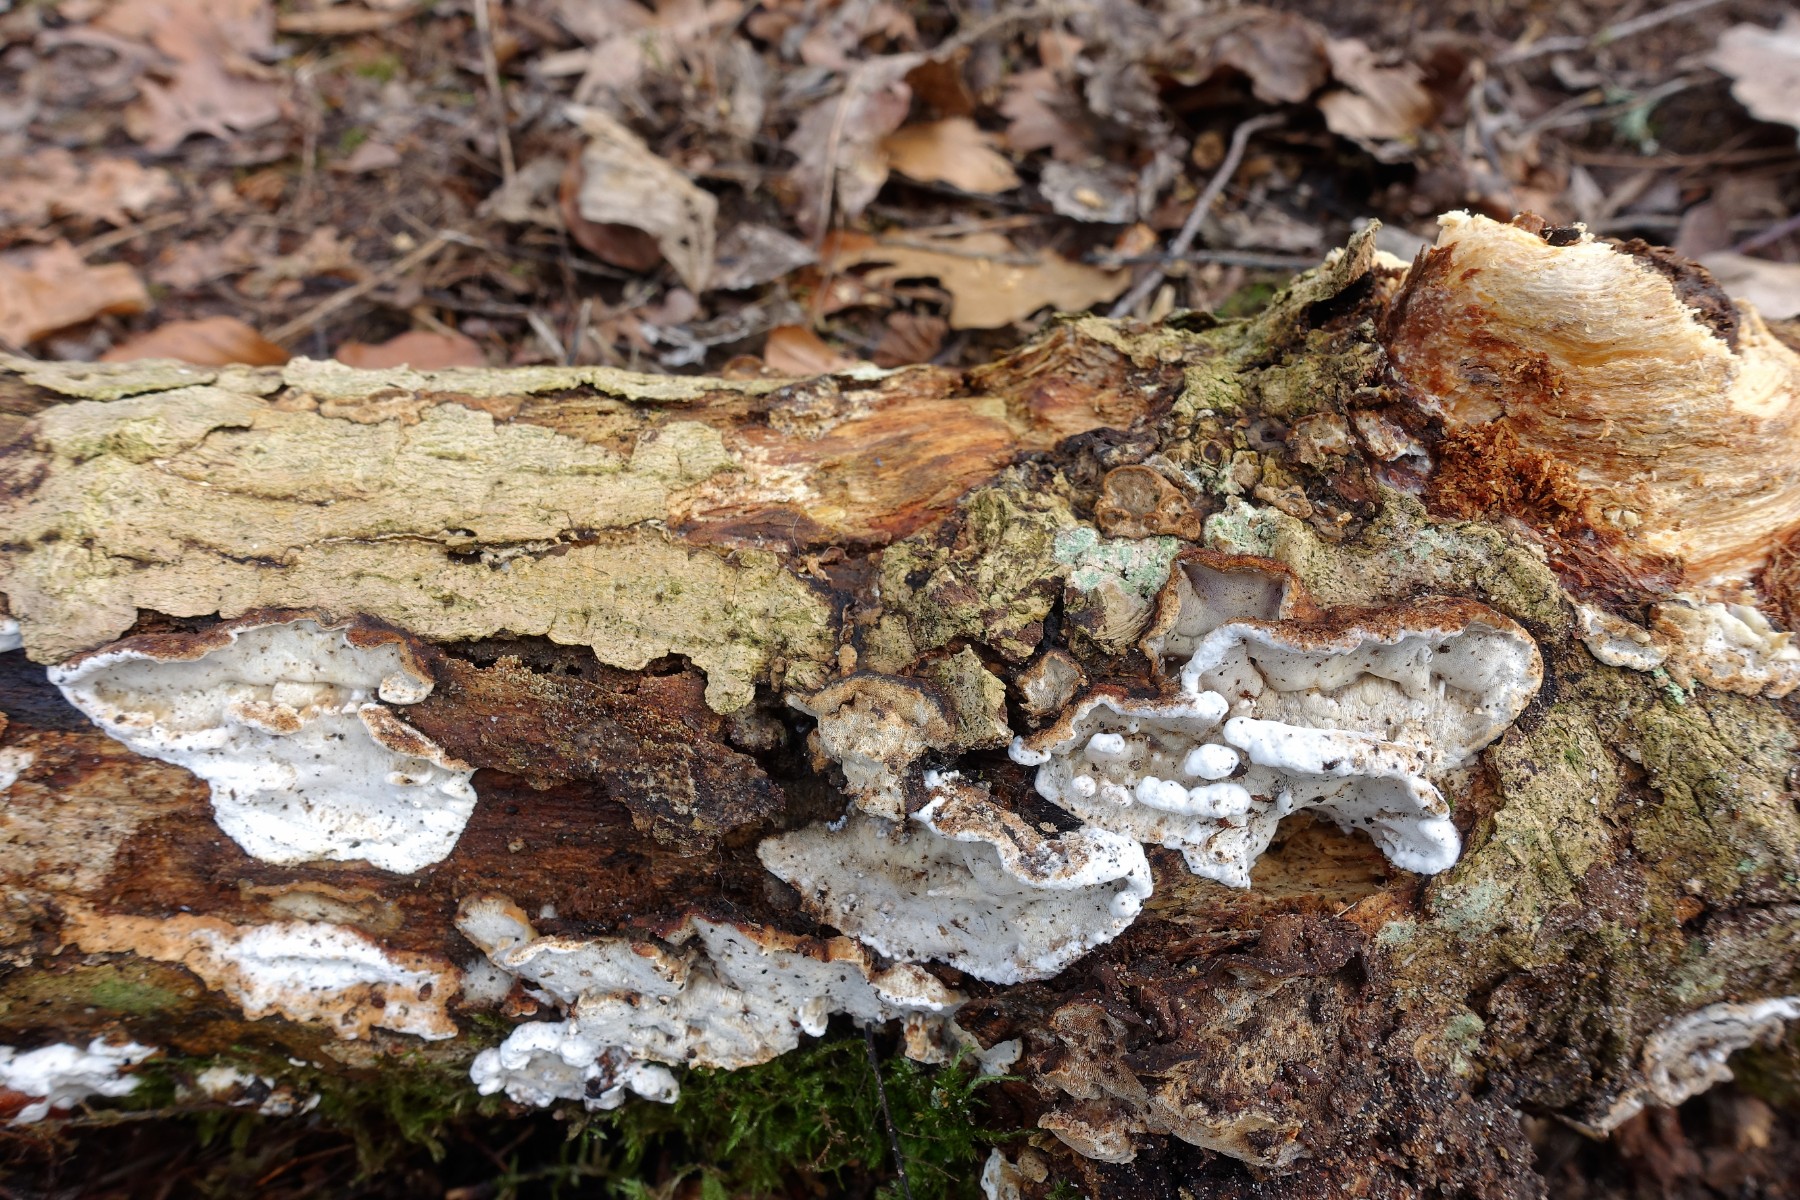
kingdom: Fungi
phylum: Basidiomycota
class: Agaricomycetes
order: Polyporales
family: Incrustoporiaceae
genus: Skeletocutis
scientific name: Skeletocutis nemoralis
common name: stor krystalporesvamp
